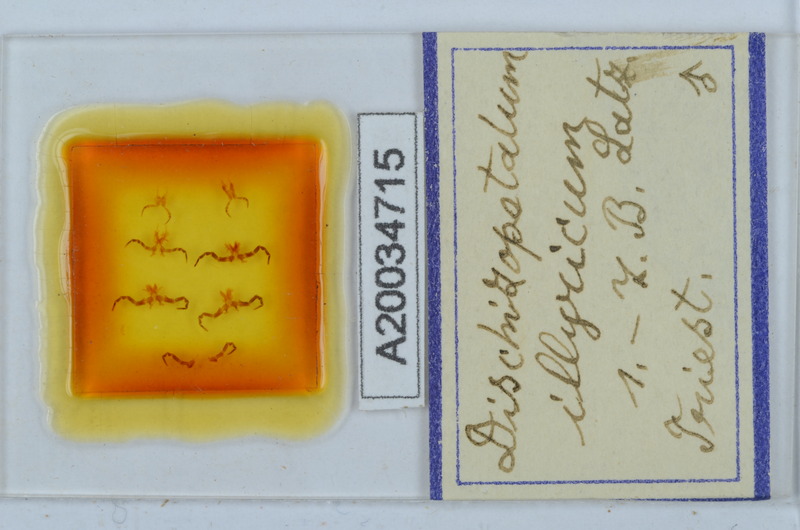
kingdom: Animalia
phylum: Arthropoda
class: Diplopoda
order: Callipodida
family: Schizopetalidae
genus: Callipodella
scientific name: Callipodella
